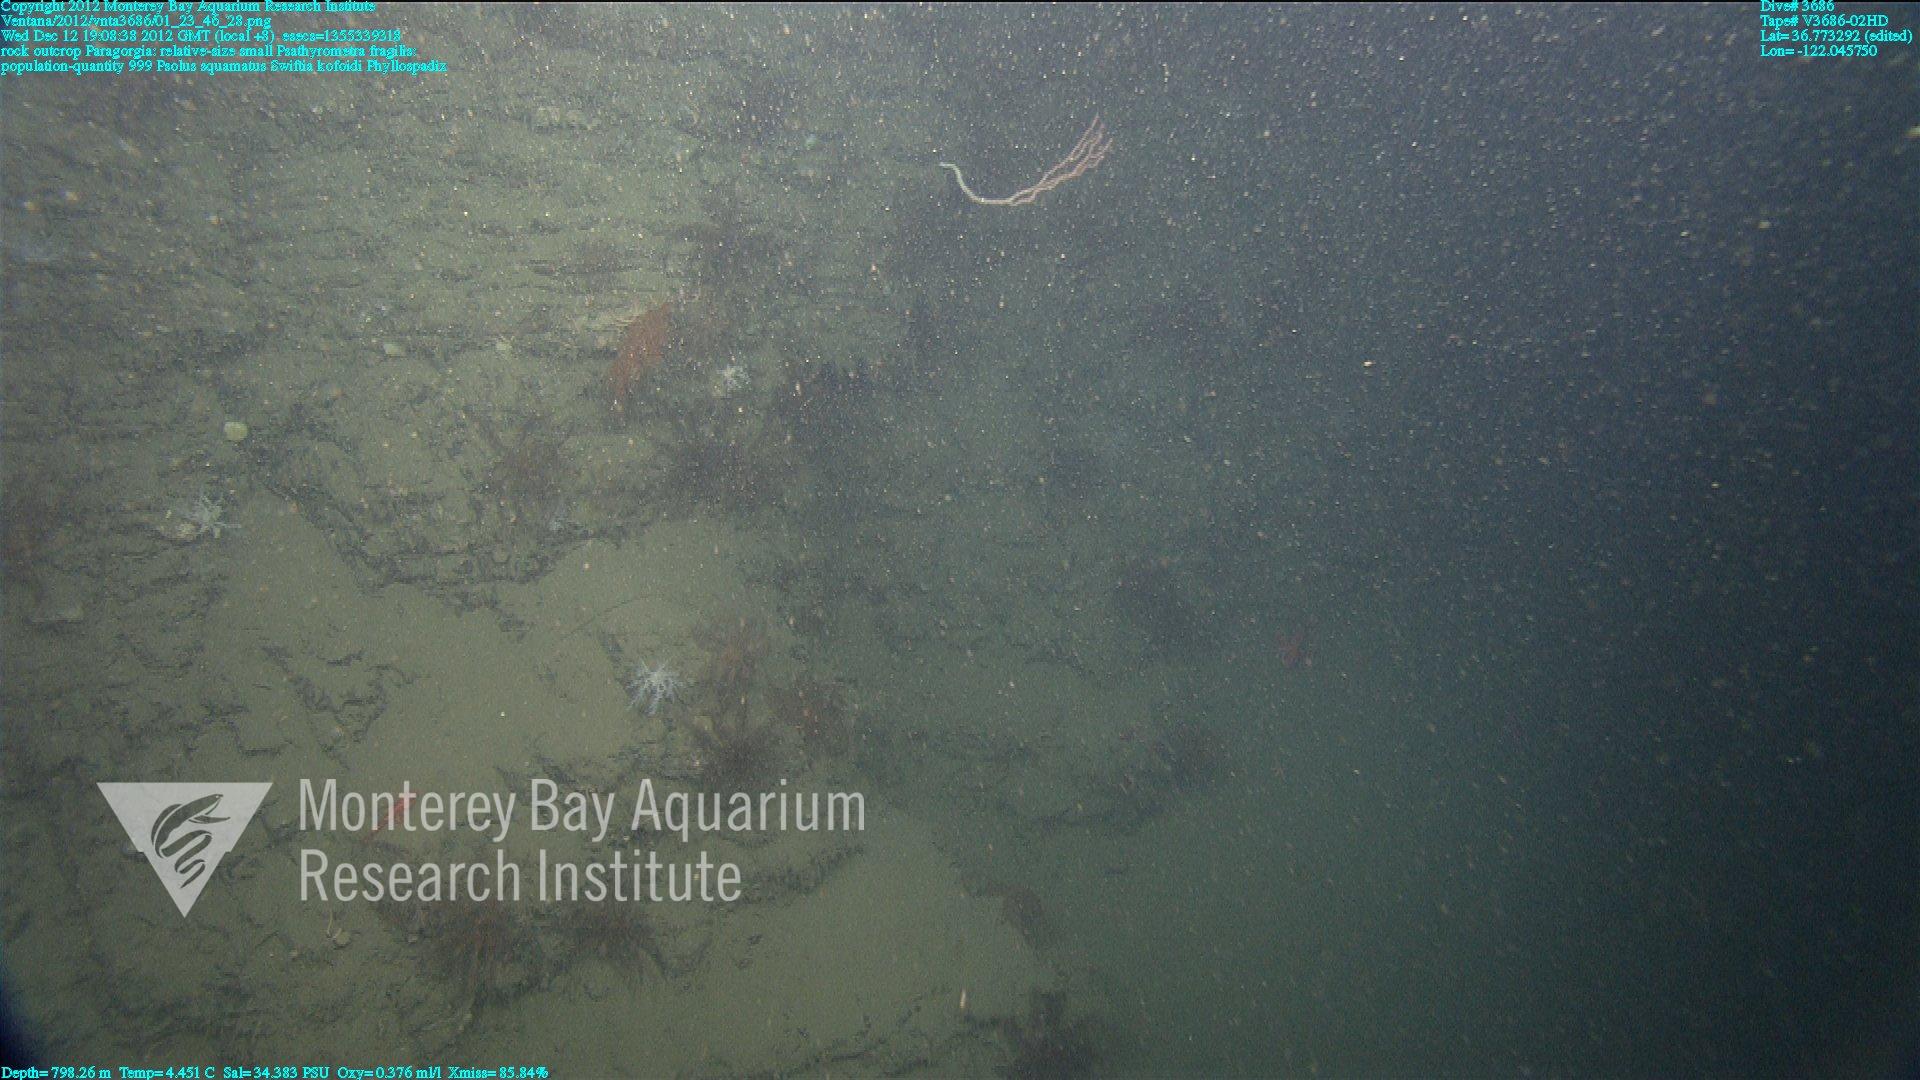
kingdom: Animalia
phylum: Cnidaria
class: Anthozoa
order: Malacalcyonacea
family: Gorgoniidae
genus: Callistephanus
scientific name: Callistephanus kofoidi
